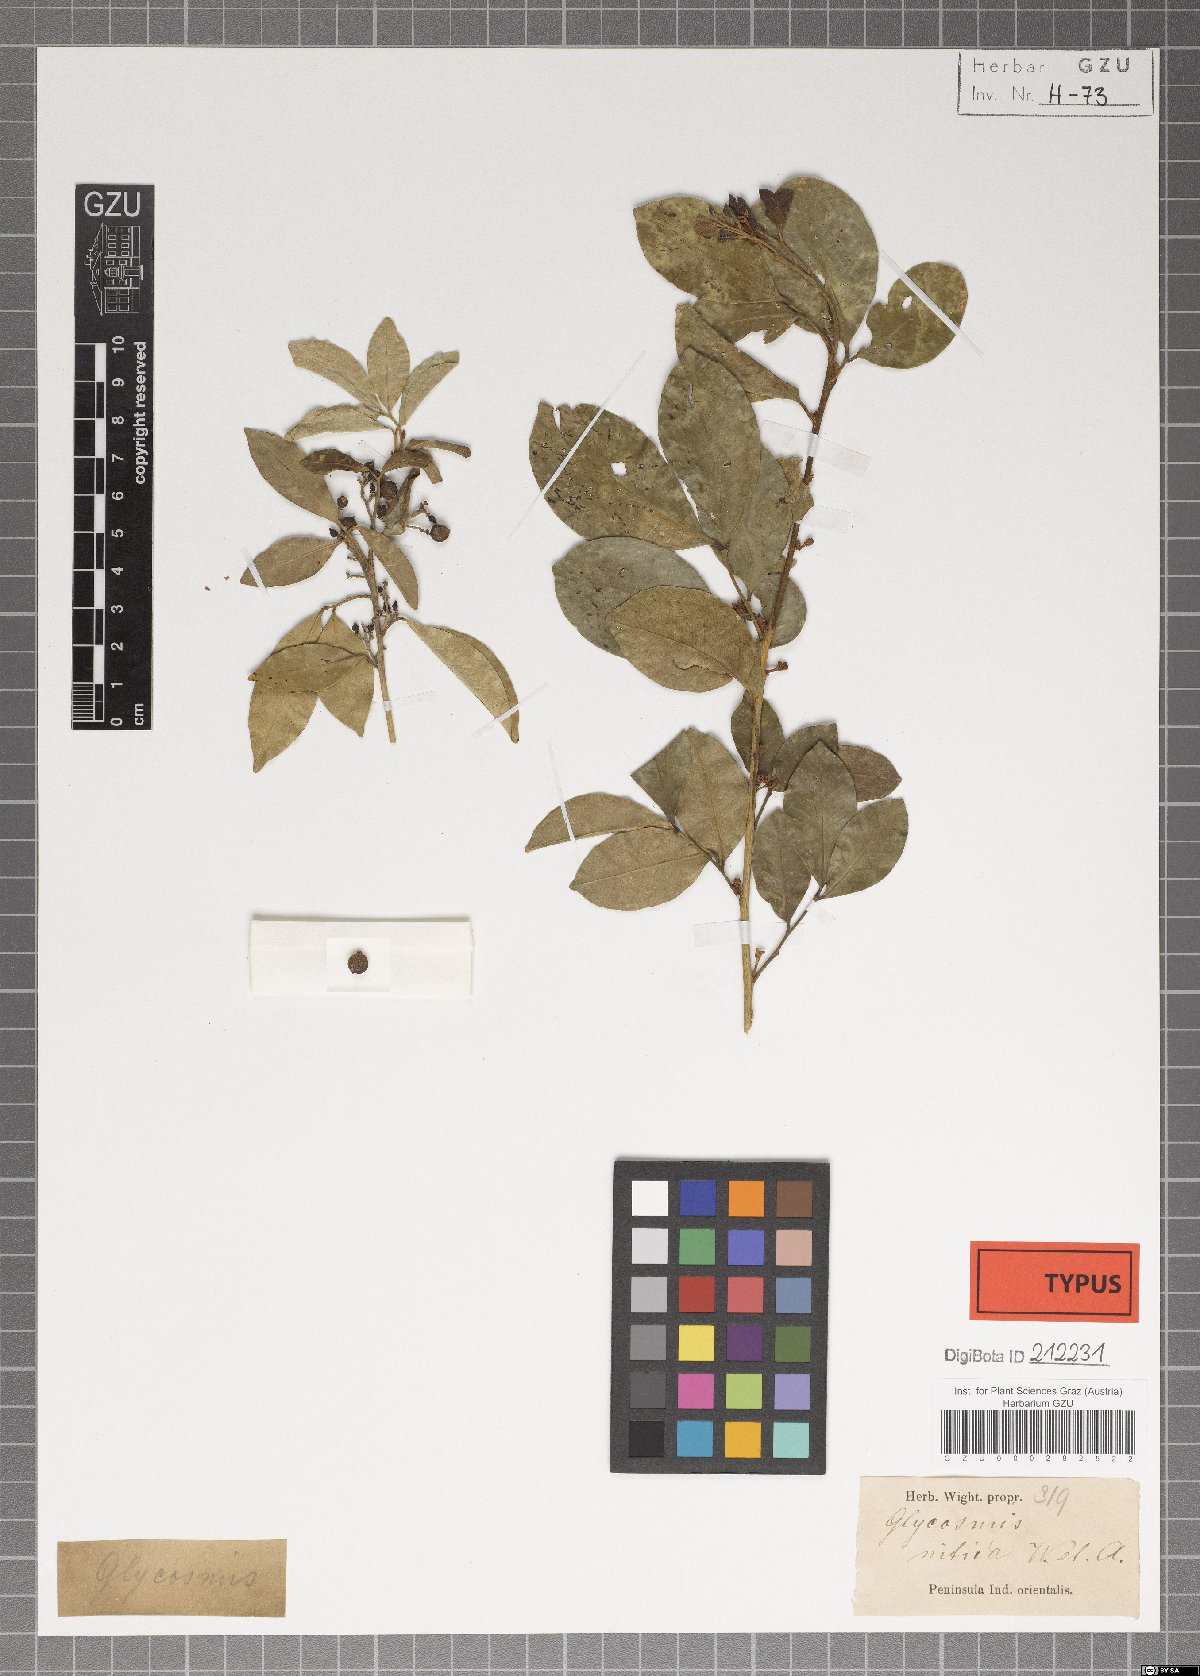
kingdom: Plantae
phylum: Tracheophyta
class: Magnoliopsida
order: Sapindales
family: Rutaceae
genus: Glycosmis
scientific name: Glycosmis mauritiana
